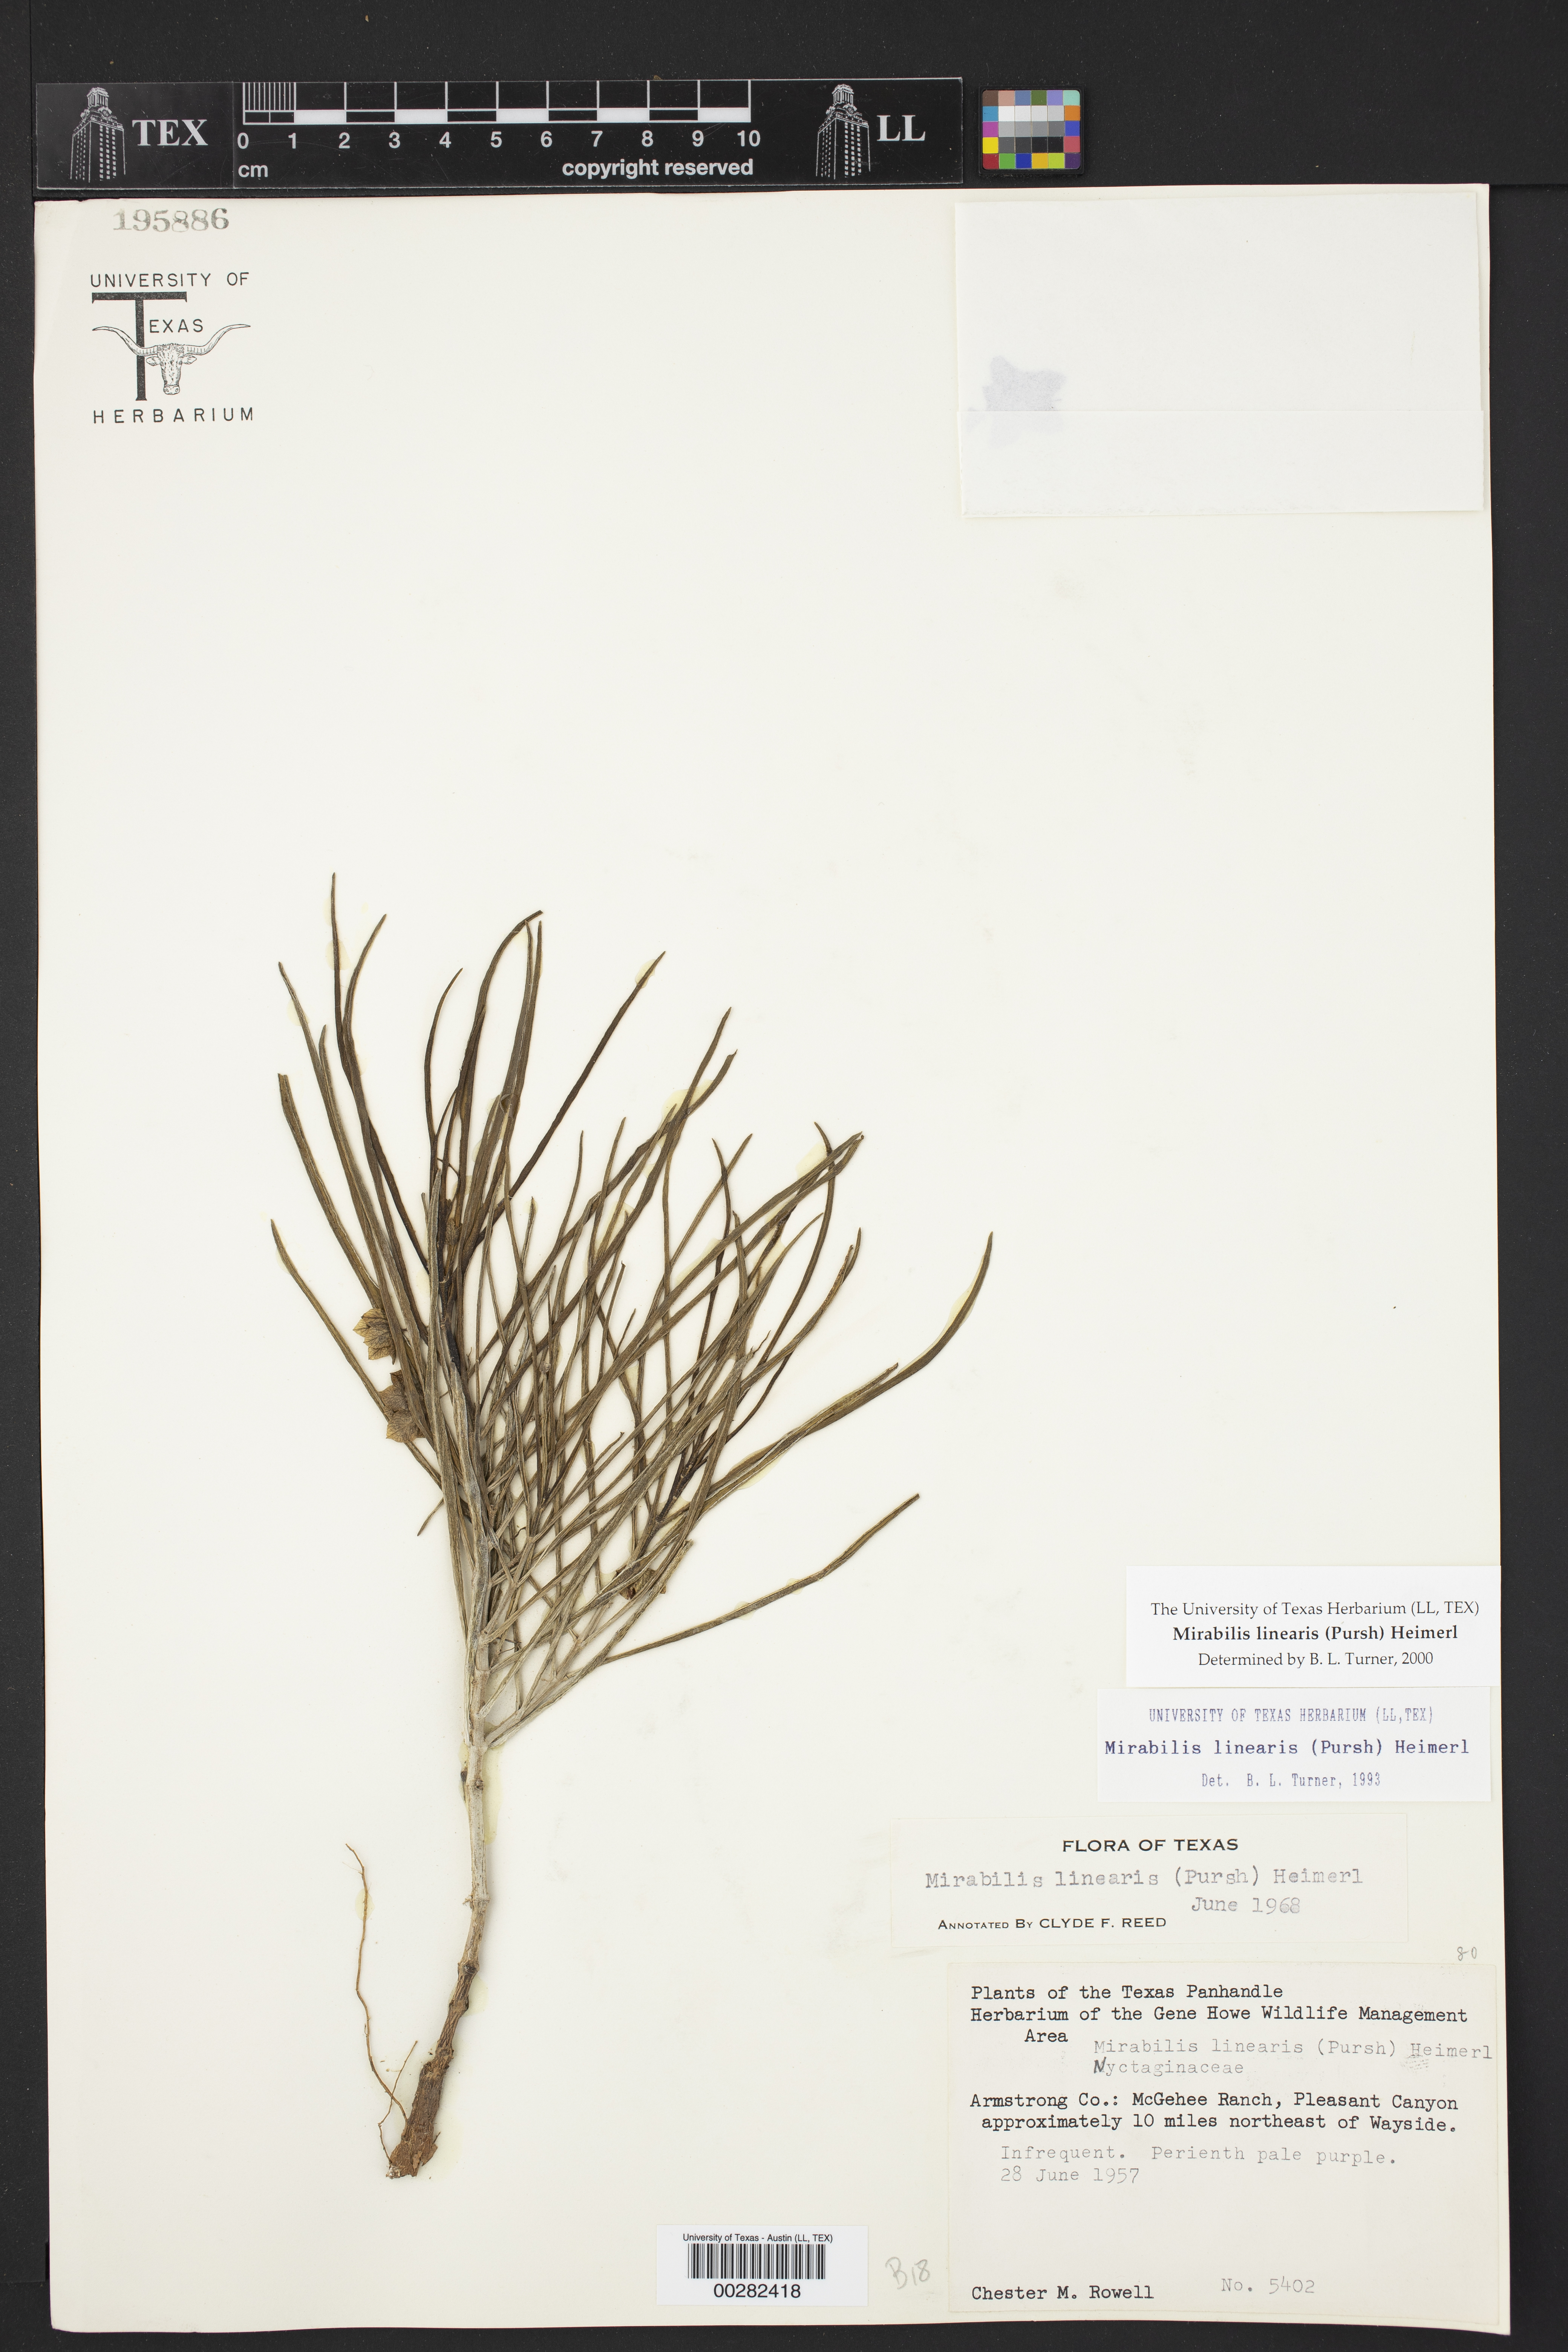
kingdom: Plantae
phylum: Tracheophyta
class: Magnoliopsida
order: Caryophyllales
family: Nyctaginaceae
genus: Mirabilis
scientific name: Mirabilis linearis
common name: Linear-leaved four-o'clock
